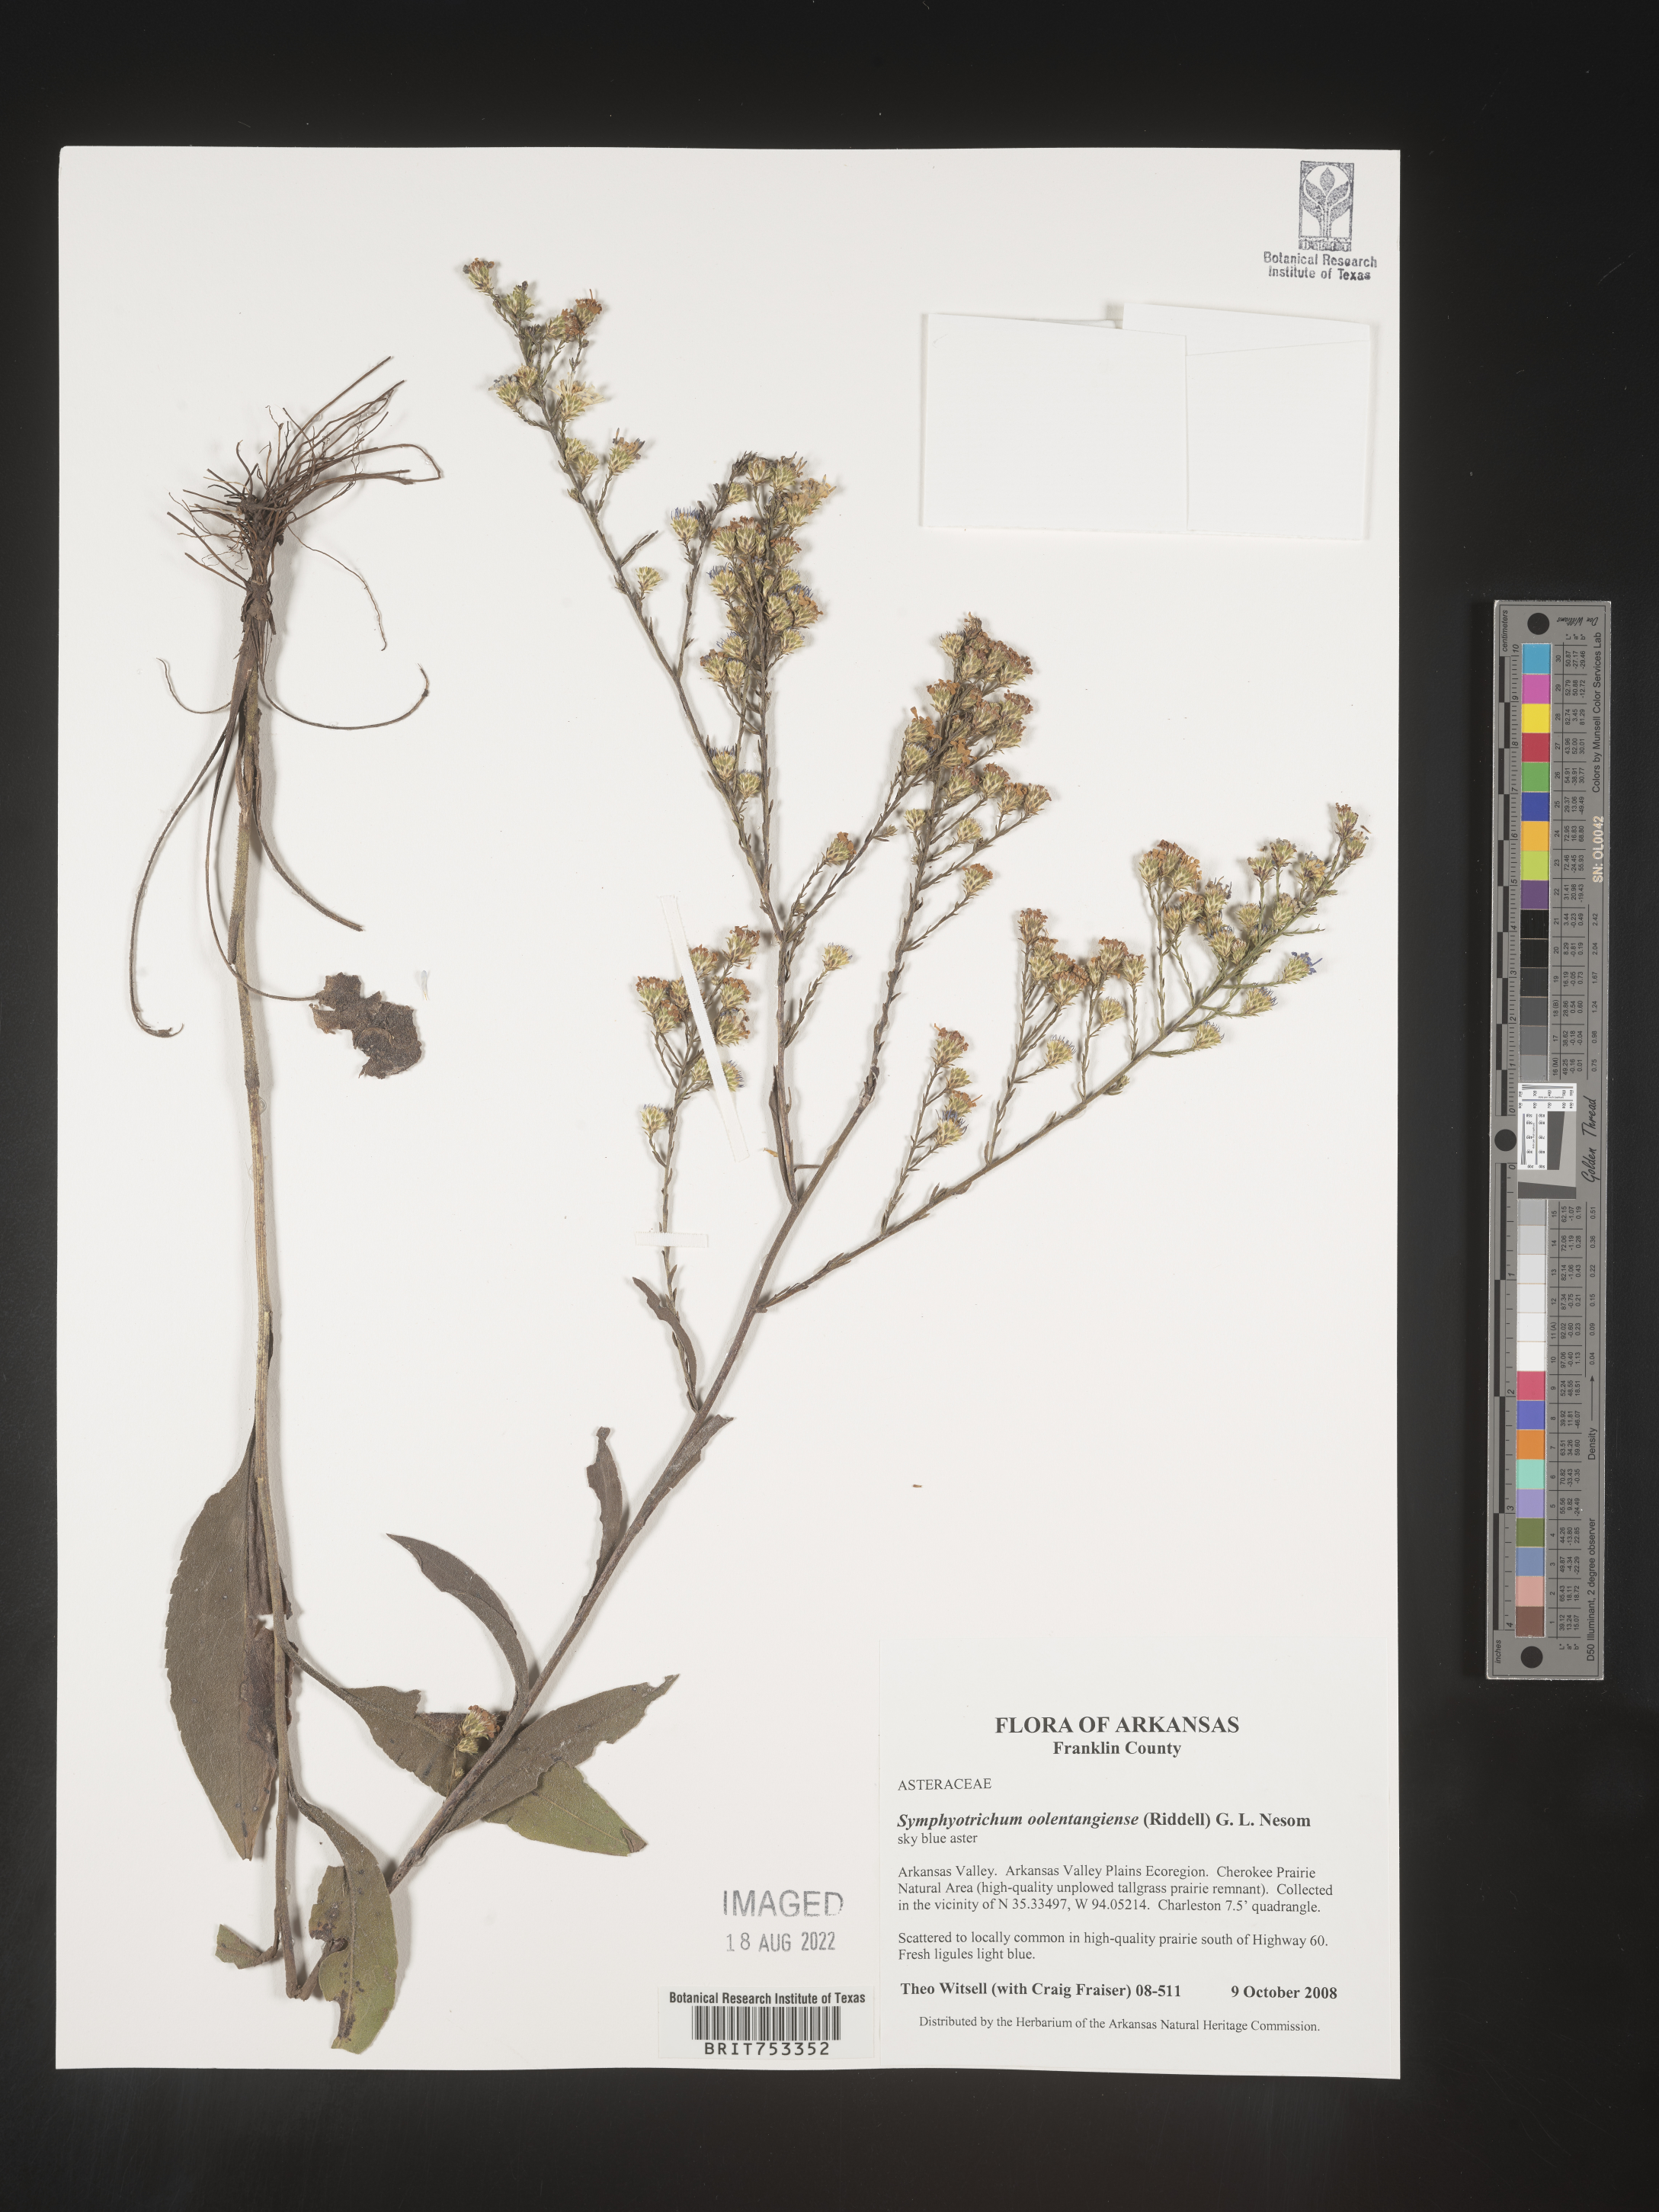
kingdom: Plantae
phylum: Tracheophyta
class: Magnoliopsida
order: Asterales
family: Asteraceae
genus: Symphyotrichum
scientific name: Symphyotrichum oolentangiense
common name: Azure aster
